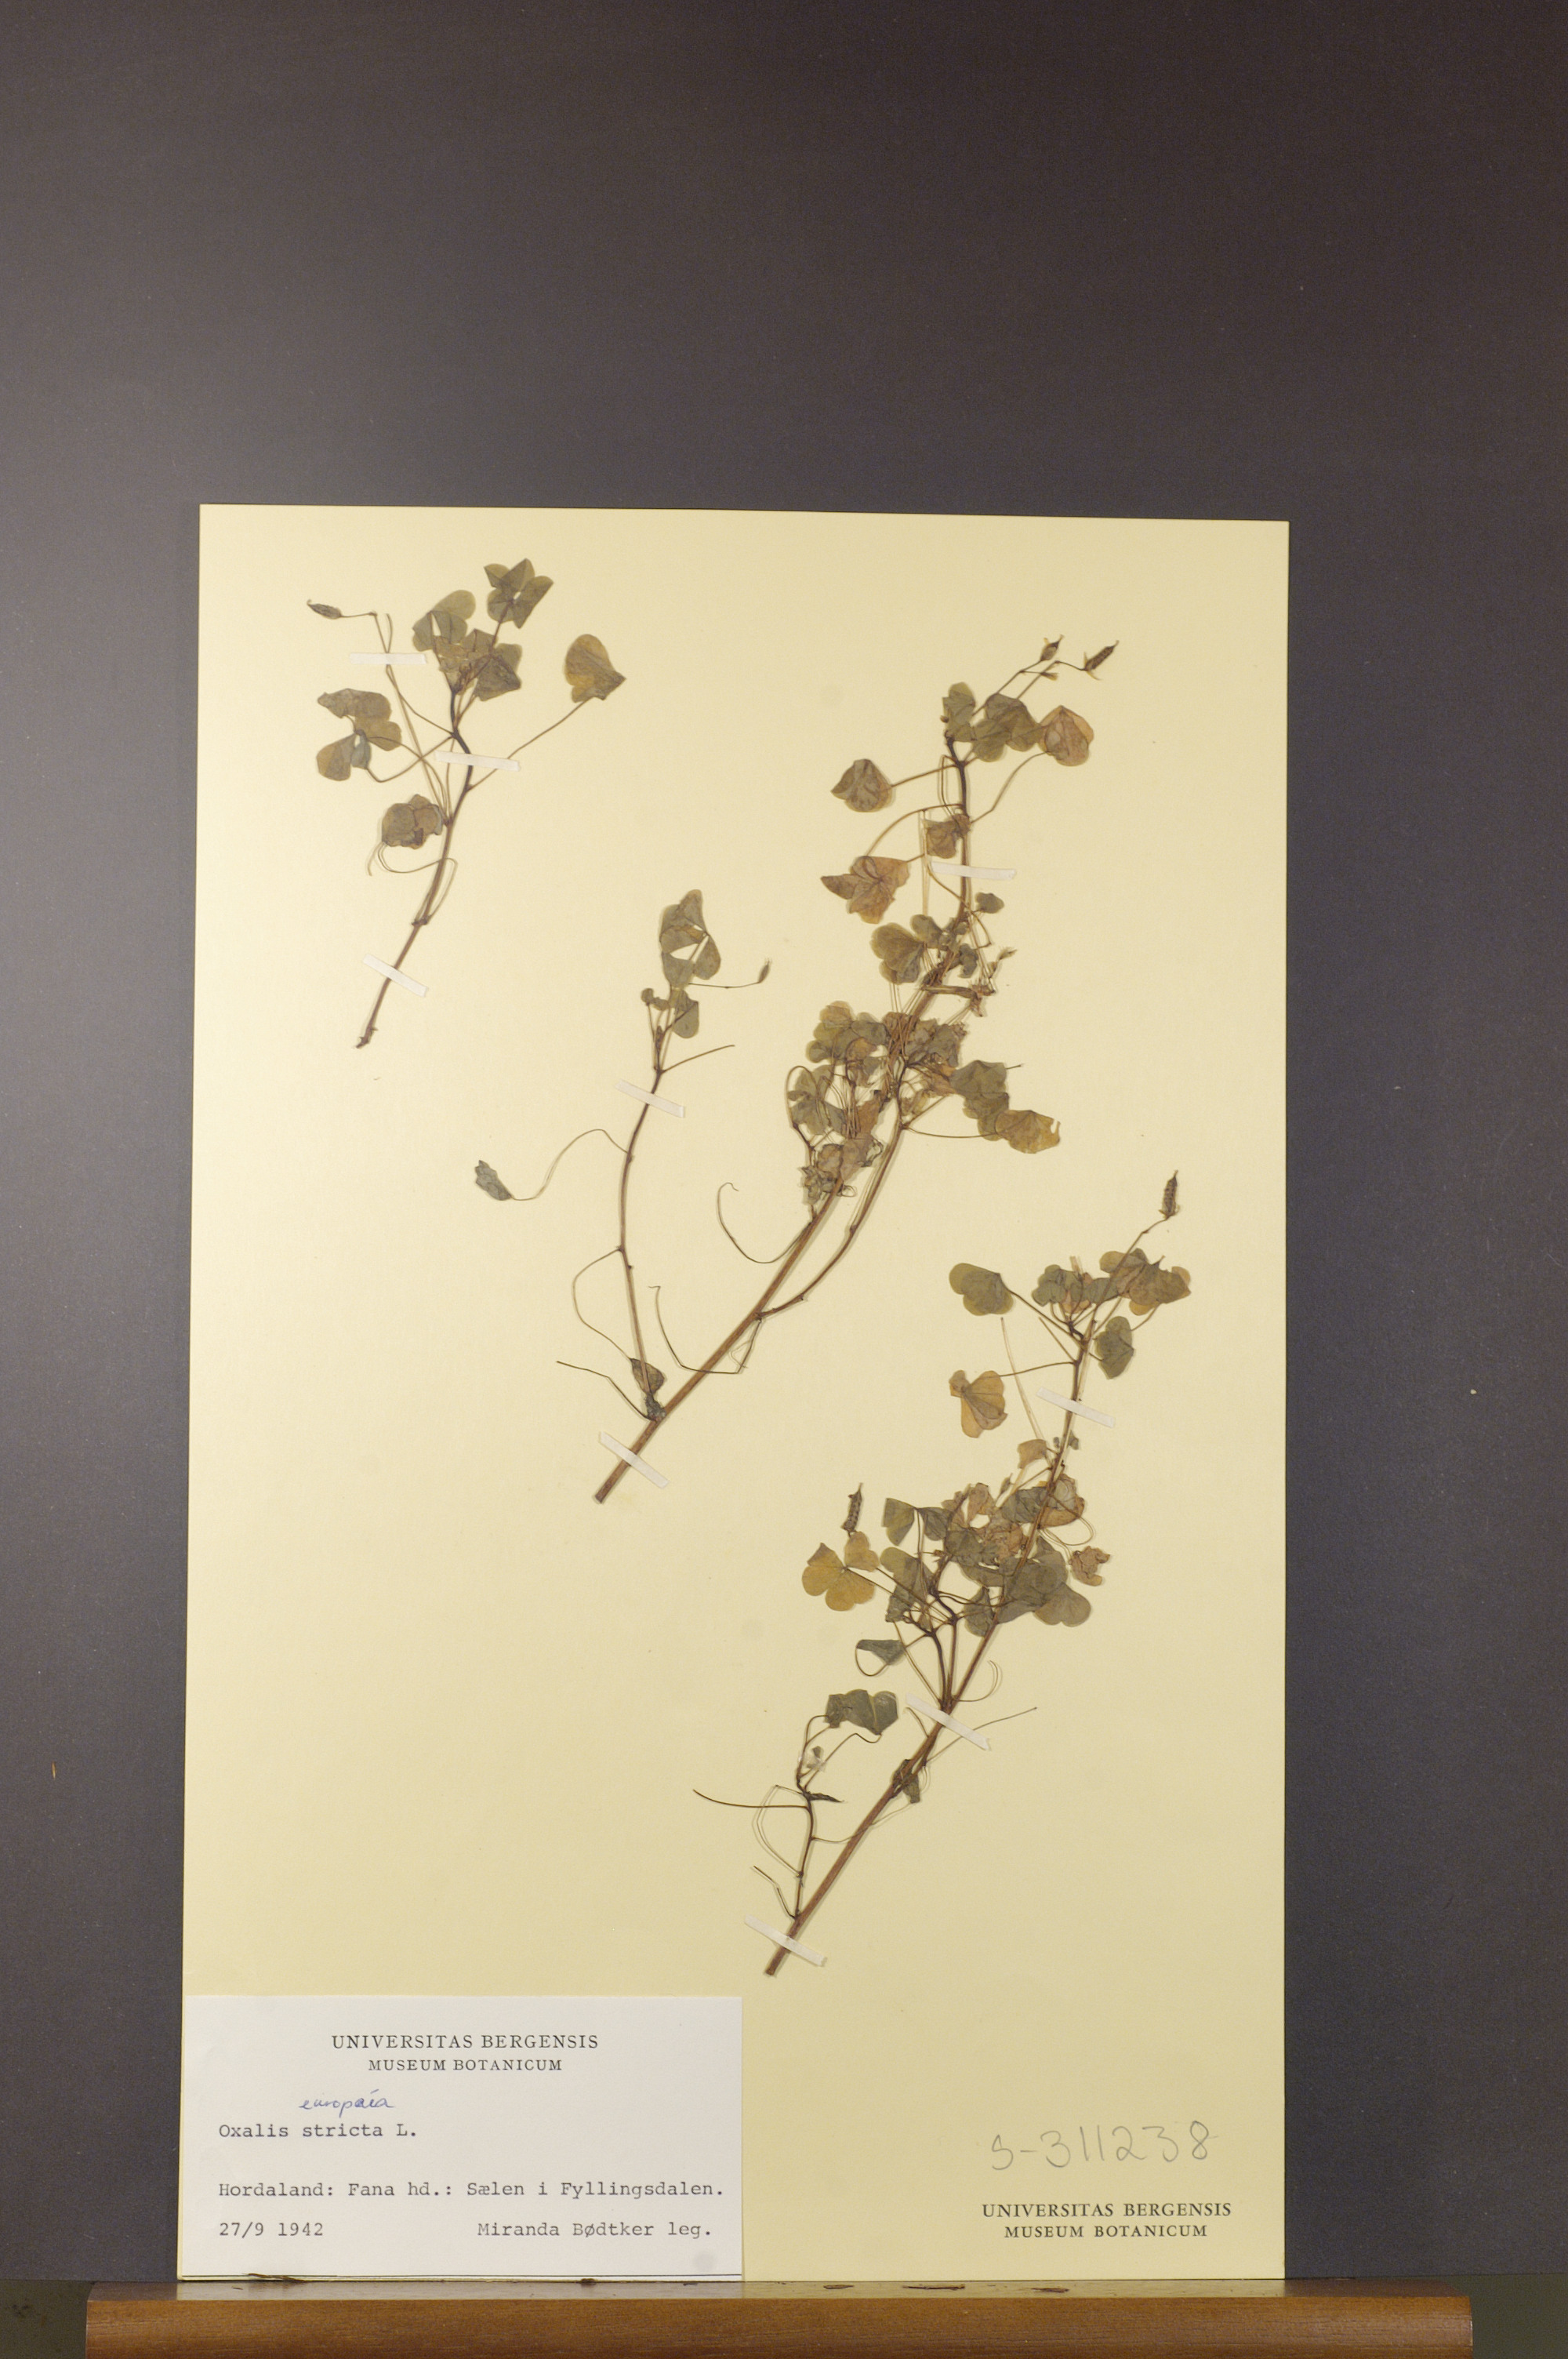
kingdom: Plantae
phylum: Tracheophyta
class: Magnoliopsida
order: Oxalidales
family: Oxalidaceae
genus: Oxalis
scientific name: Oxalis dillenii
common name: Sussex yellow-sorrel
